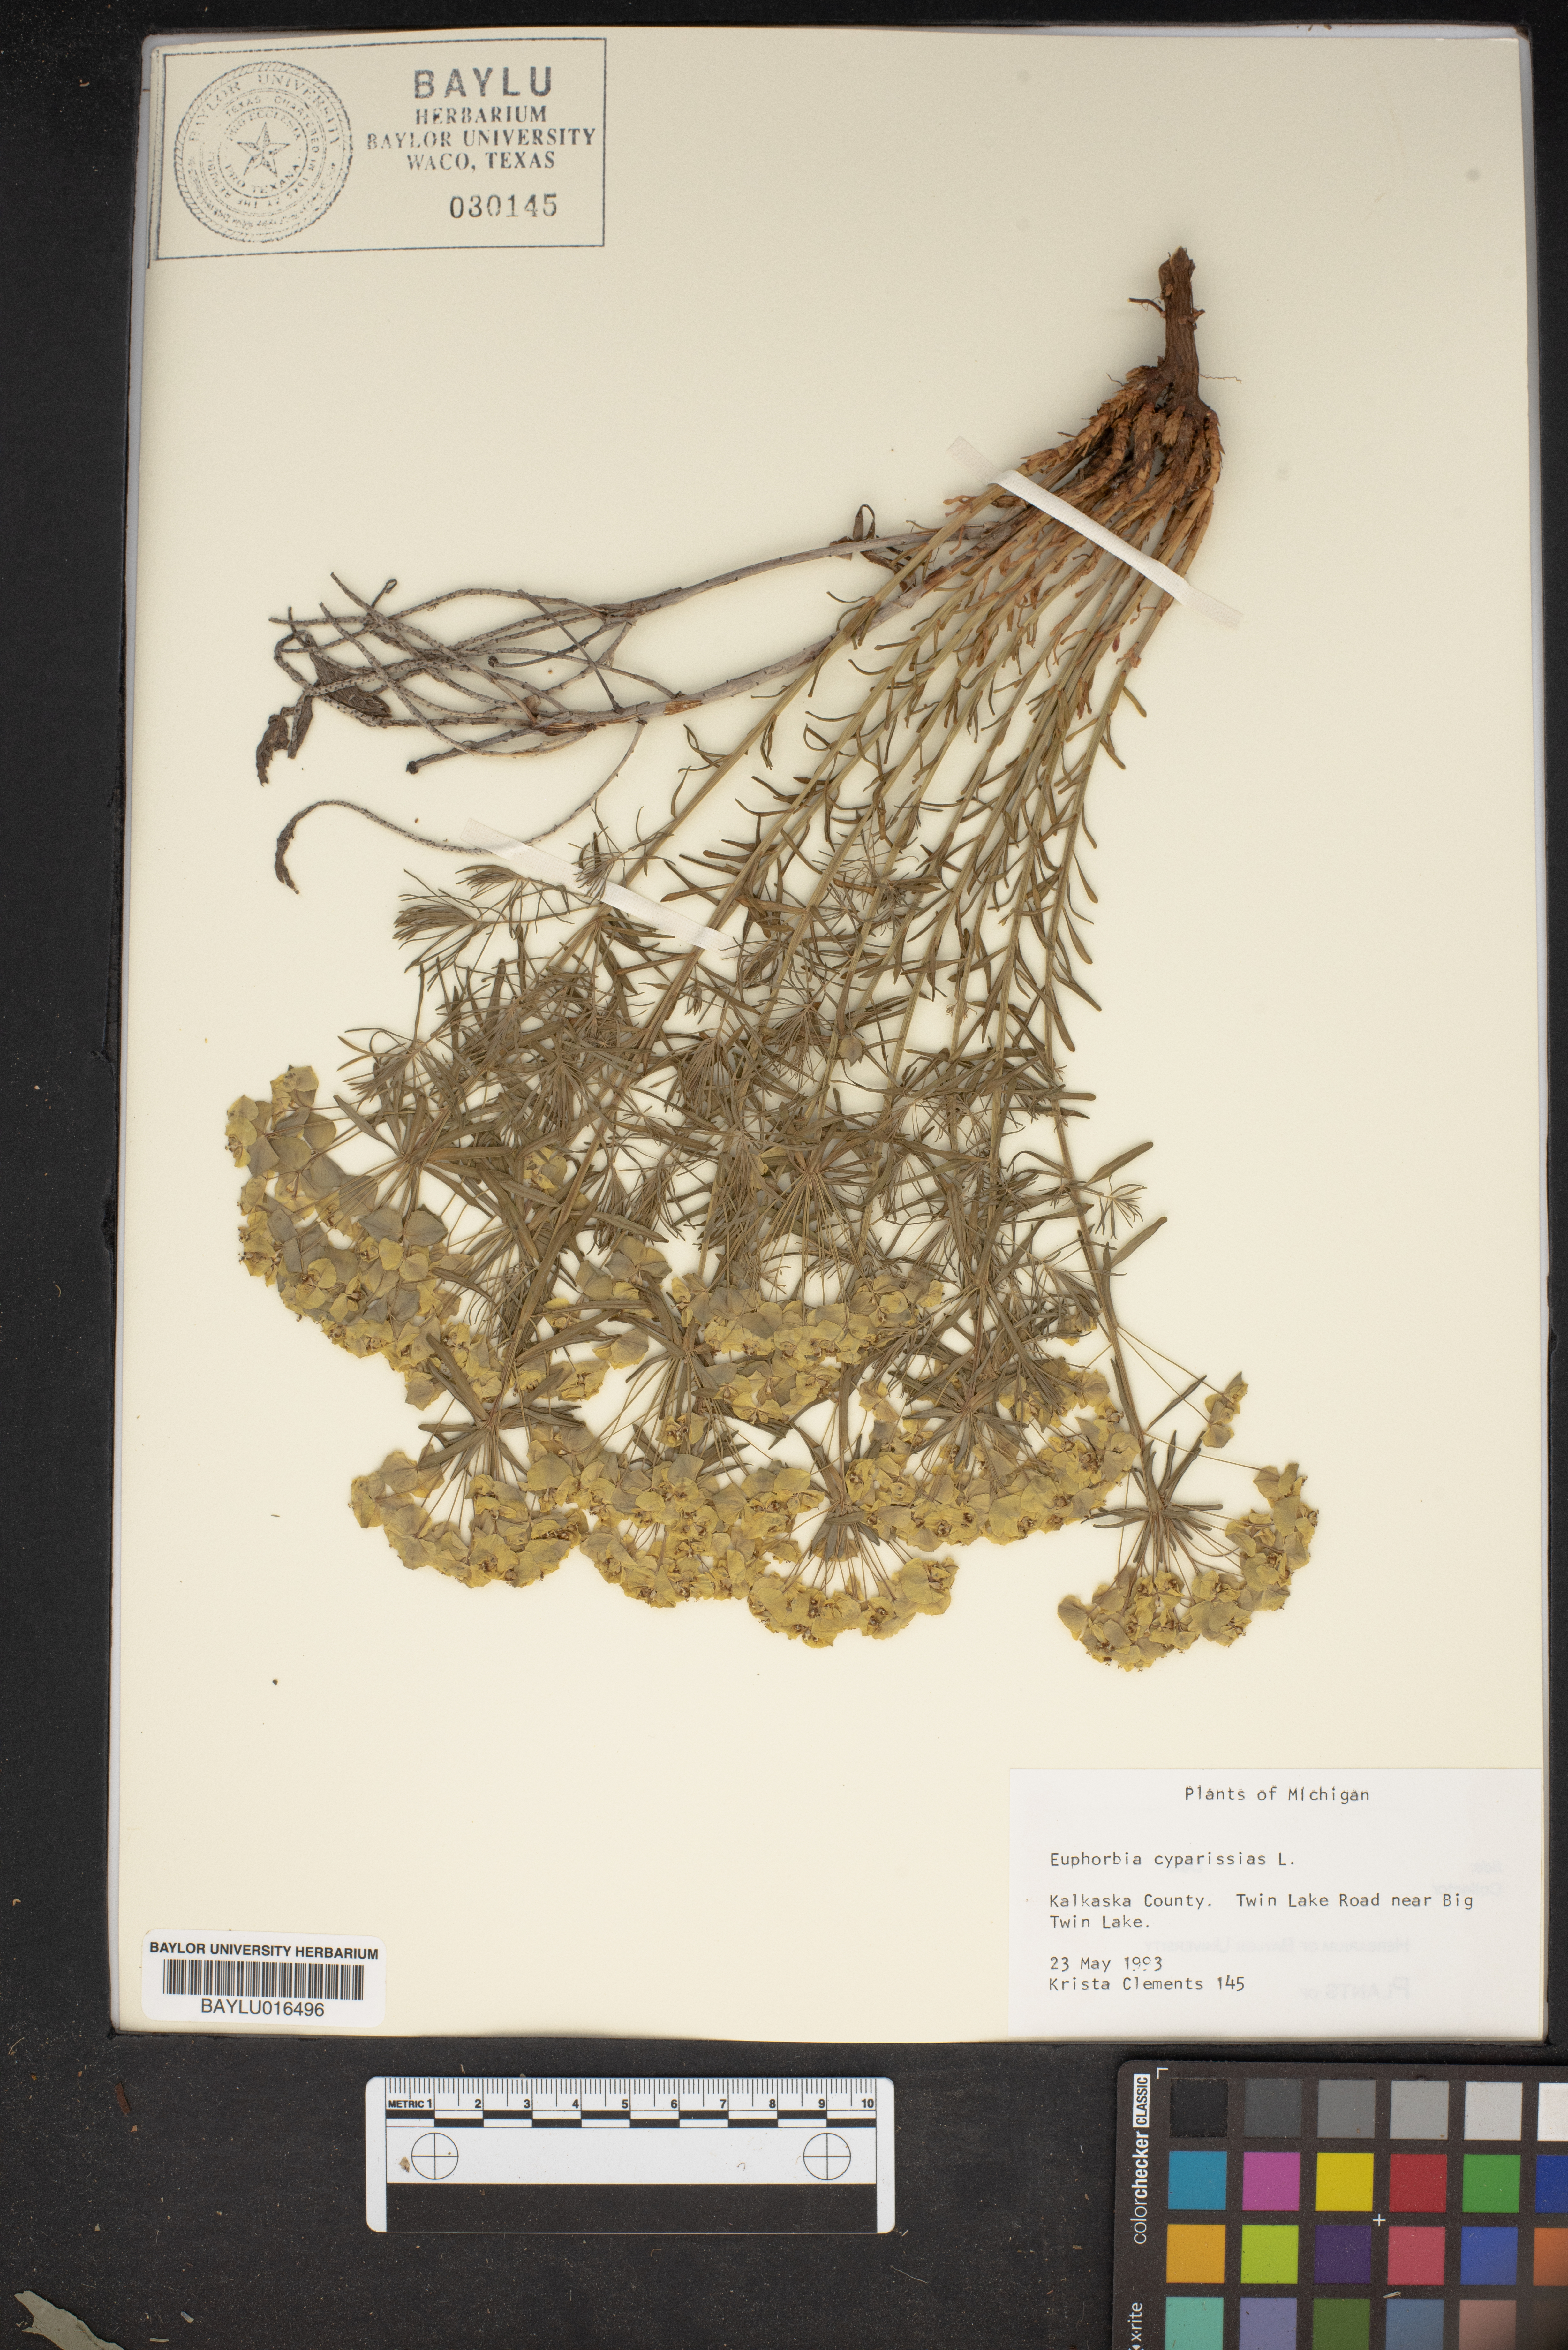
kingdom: Plantae
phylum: Tracheophyta
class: Magnoliopsida
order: Malpighiales
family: Euphorbiaceae
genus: Euphorbia
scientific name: Euphorbia cyparissias
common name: Cypress spurge
